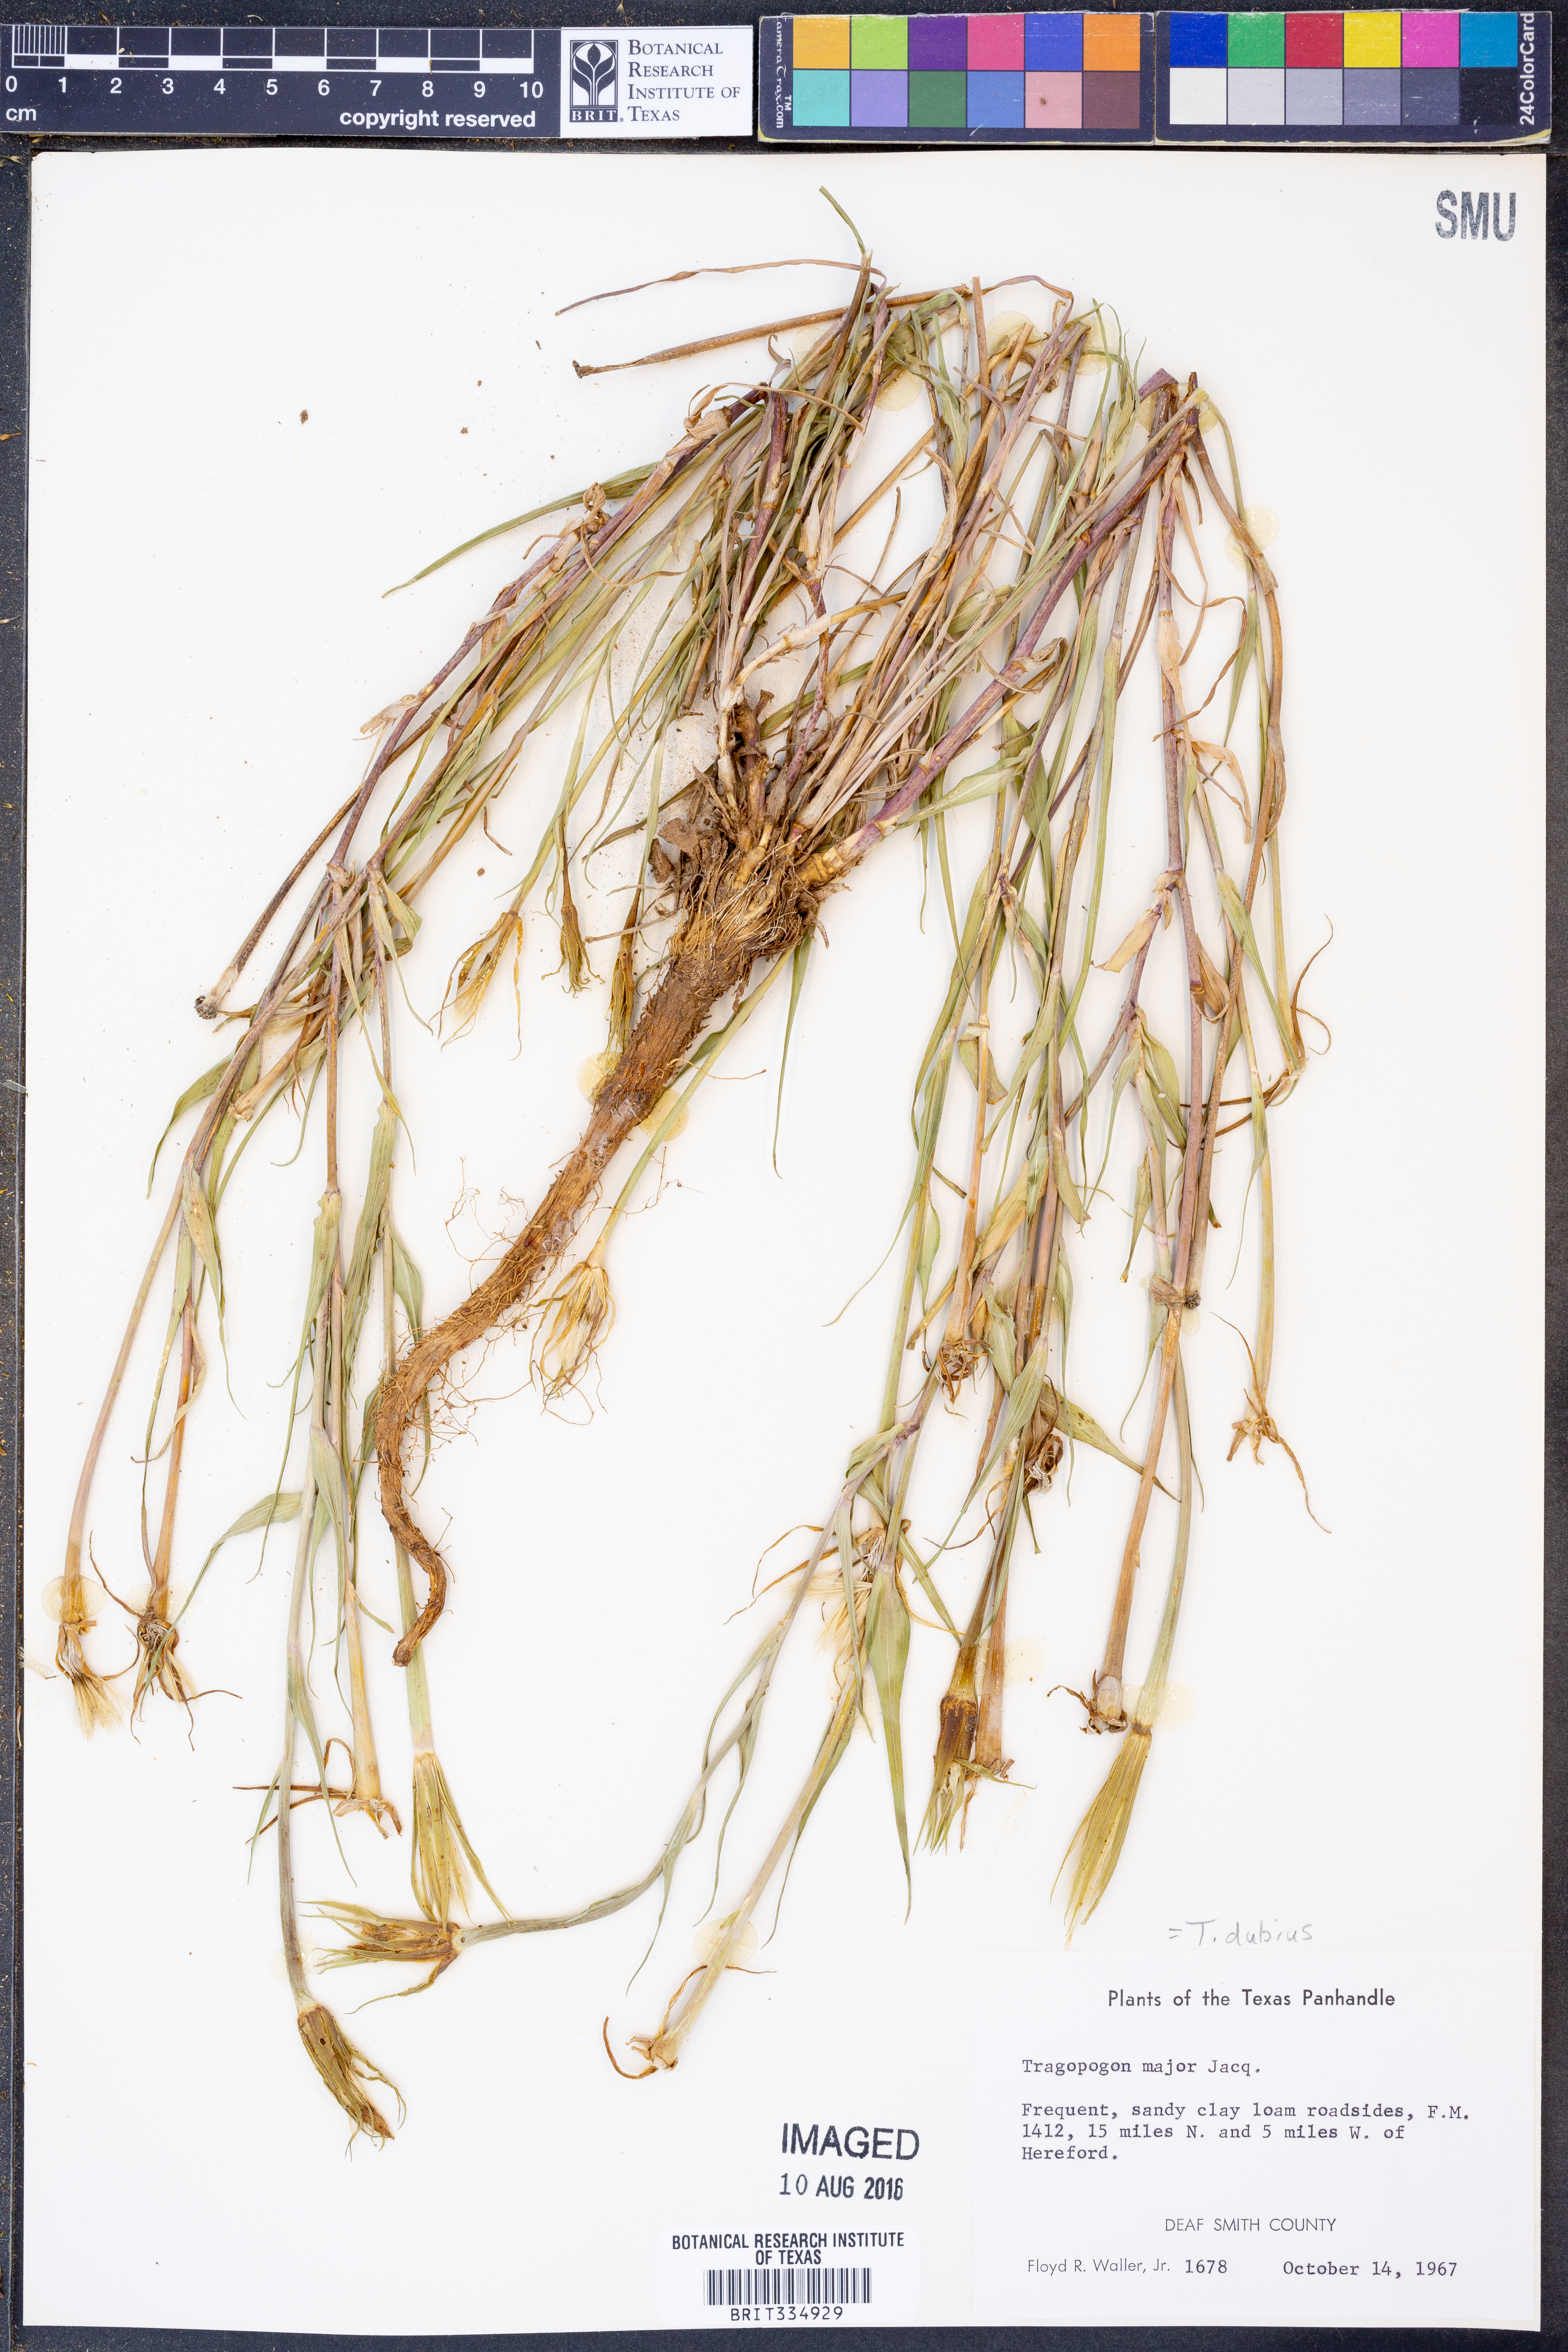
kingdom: Plantae
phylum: Tracheophyta
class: Magnoliopsida
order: Asterales
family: Asteraceae
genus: Tragopogon
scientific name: Tragopogon dubius
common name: Yellow salsify
